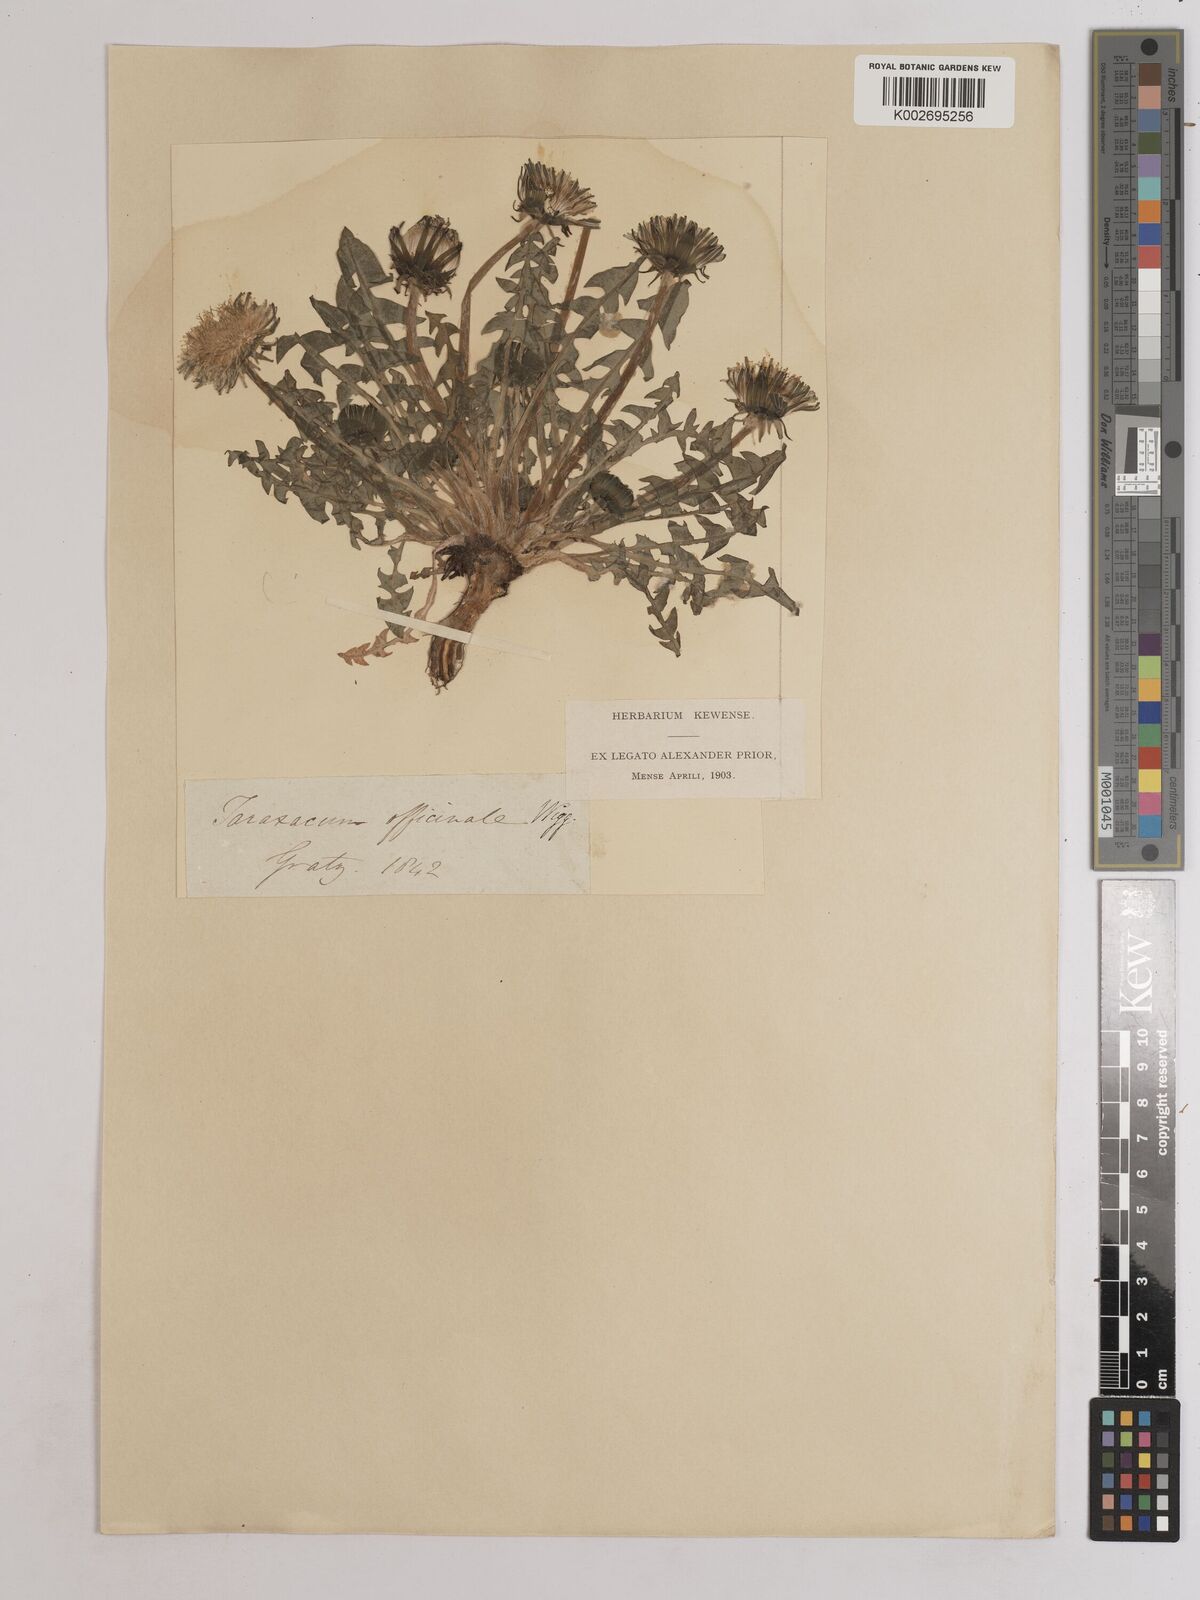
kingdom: Plantae
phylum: Tracheophyta
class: Magnoliopsida
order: Asterales
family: Asteraceae
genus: Taraxacum
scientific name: Taraxacum officinale
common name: Common dandelion
